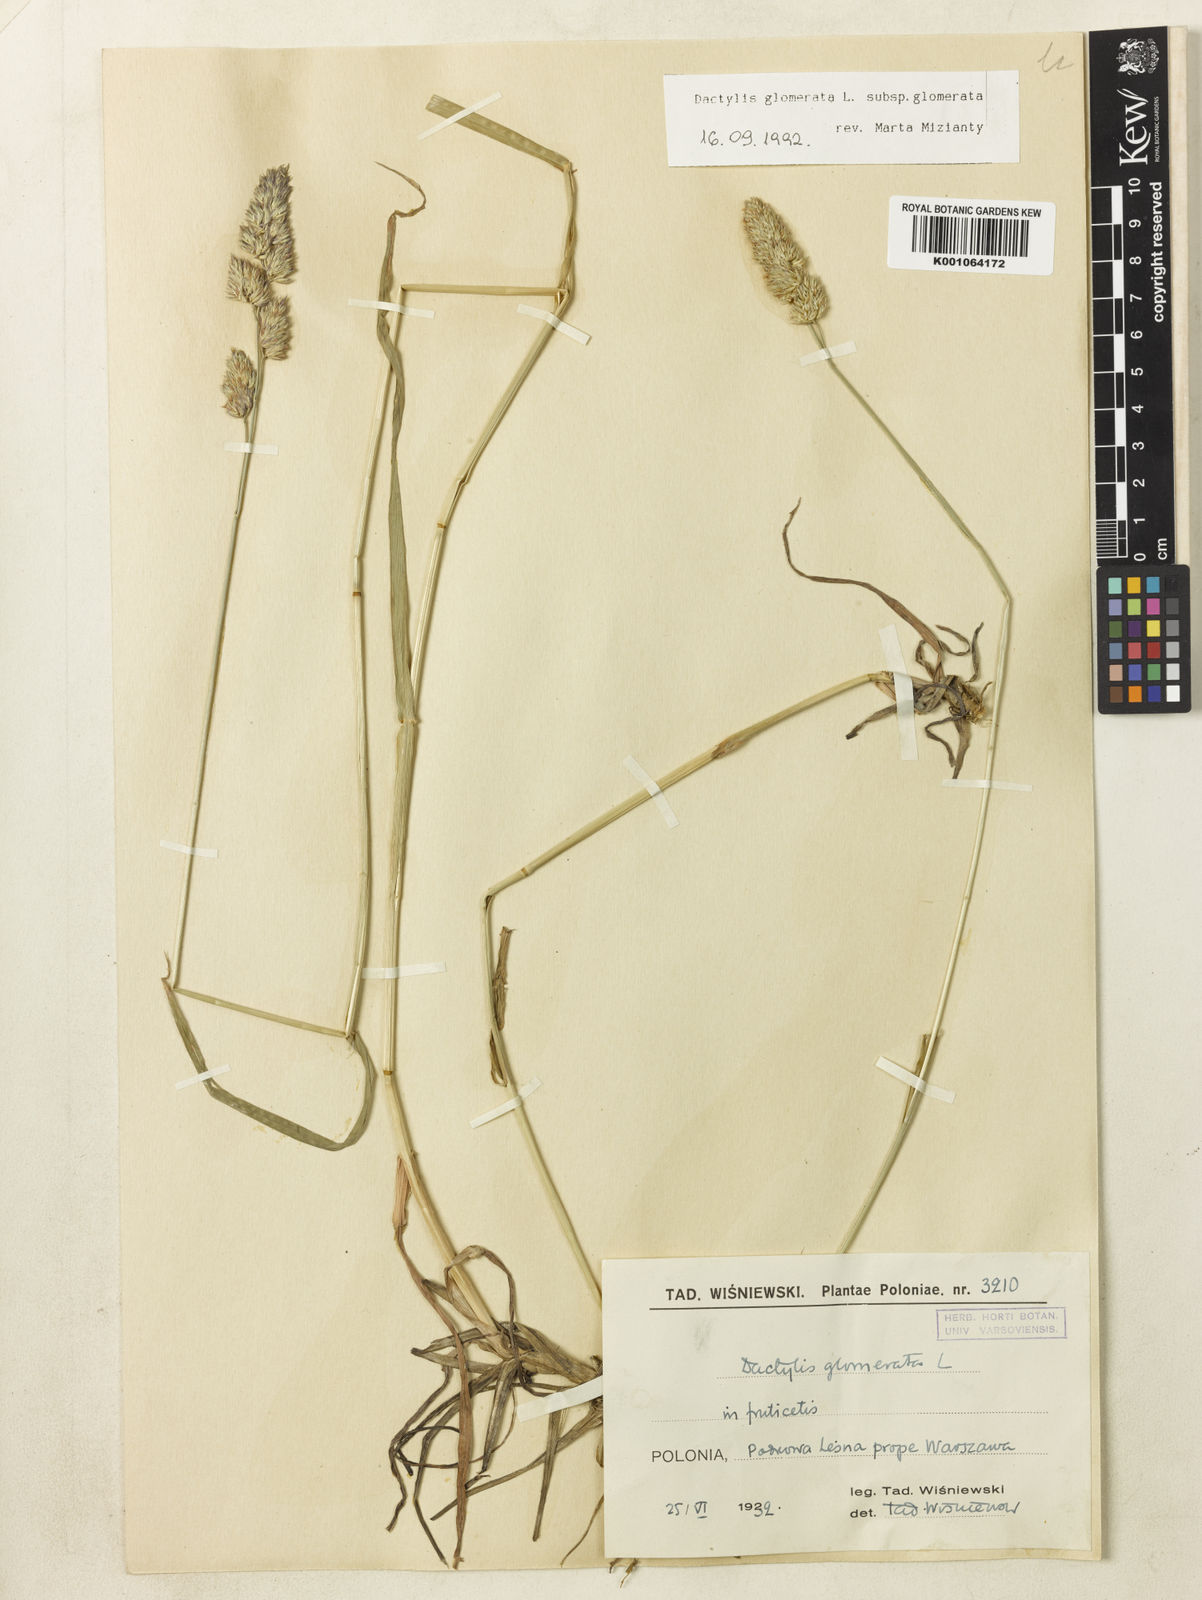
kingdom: Plantae
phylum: Tracheophyta
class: Liliopsida
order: Poales
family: Poaceae
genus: Dactylis
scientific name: Dactylis glomerata
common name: Orchardgrass
